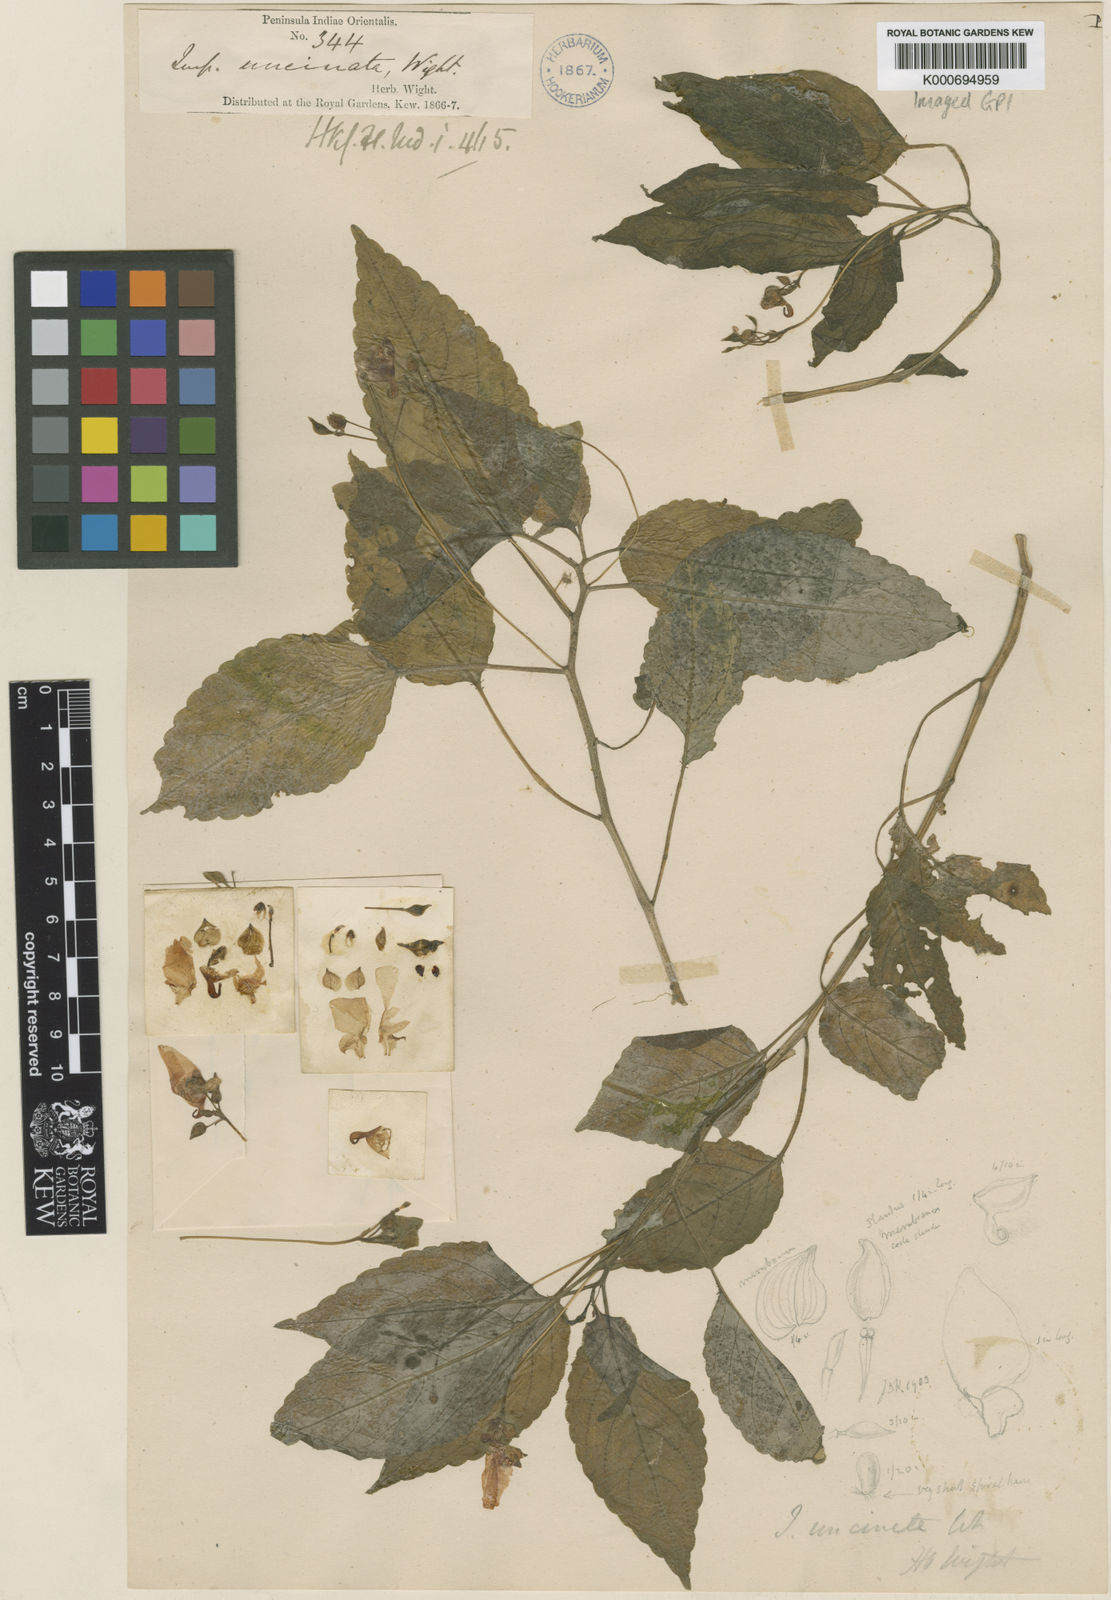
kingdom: Plantae
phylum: Tracheophyta
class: Magnoliopsida
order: Ericales
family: Balsaminaceae
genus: Impatiens
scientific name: Impatiens uncinata
